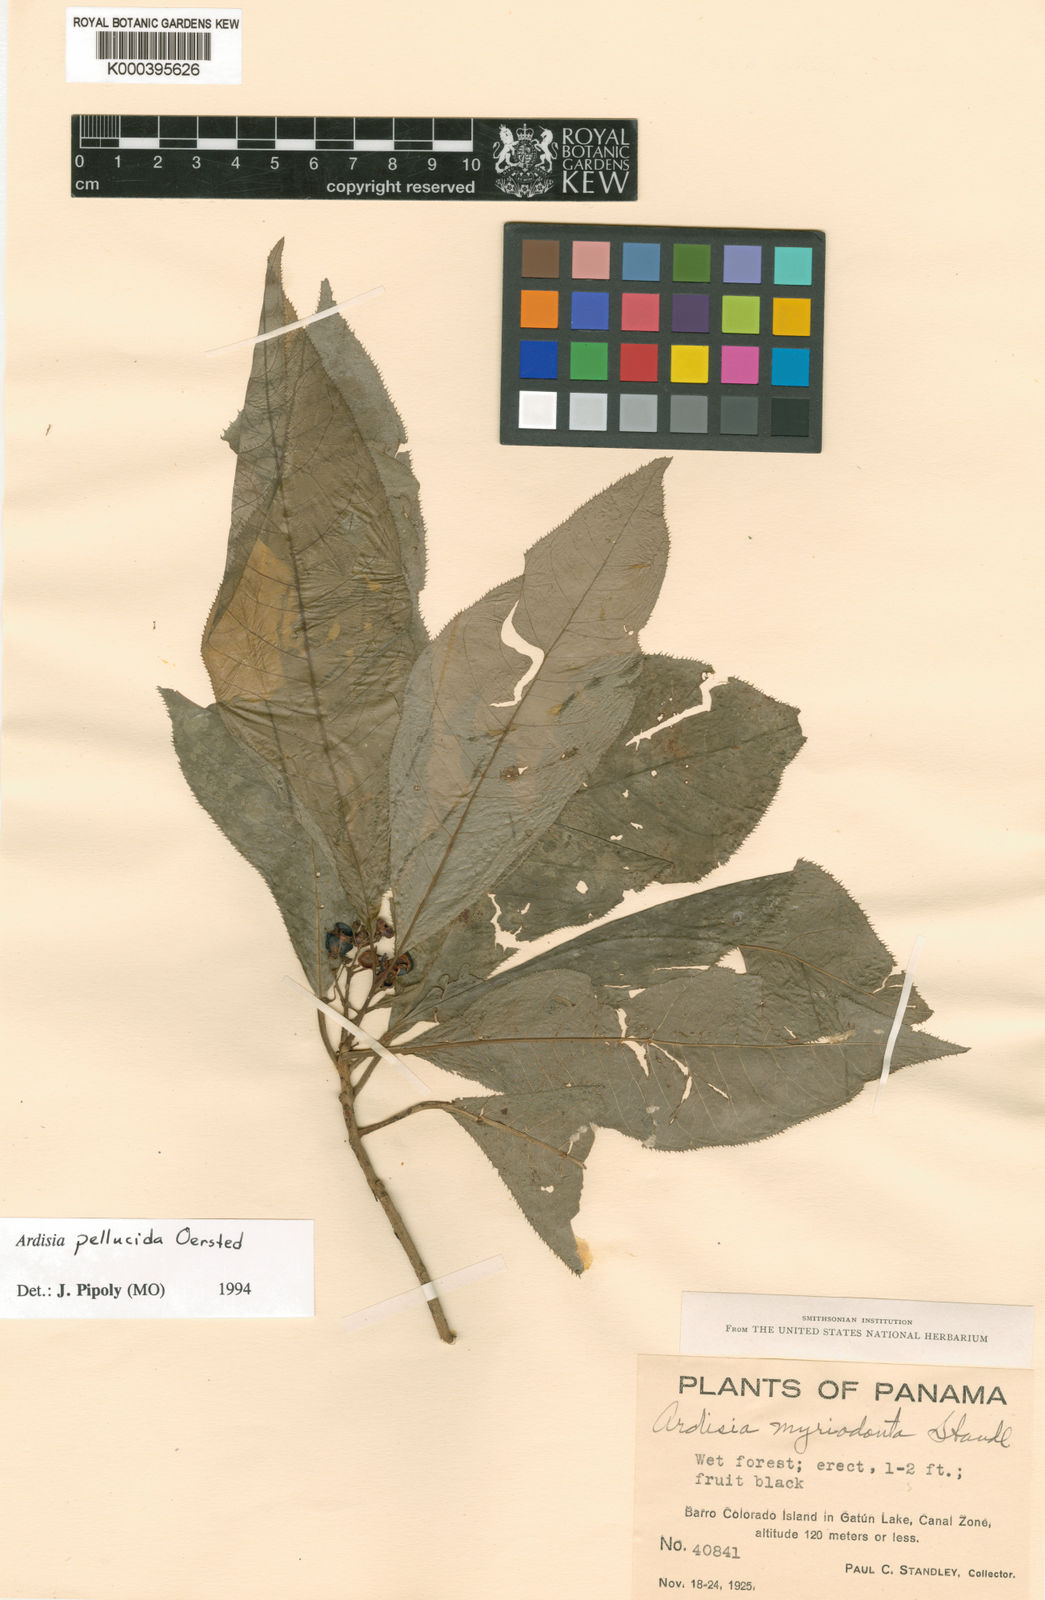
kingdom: Plantae
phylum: Tracheophyta
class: Magnoliopsida
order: Ericales
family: Primulaceae
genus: Ardisia
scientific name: Ardisia pellucida
